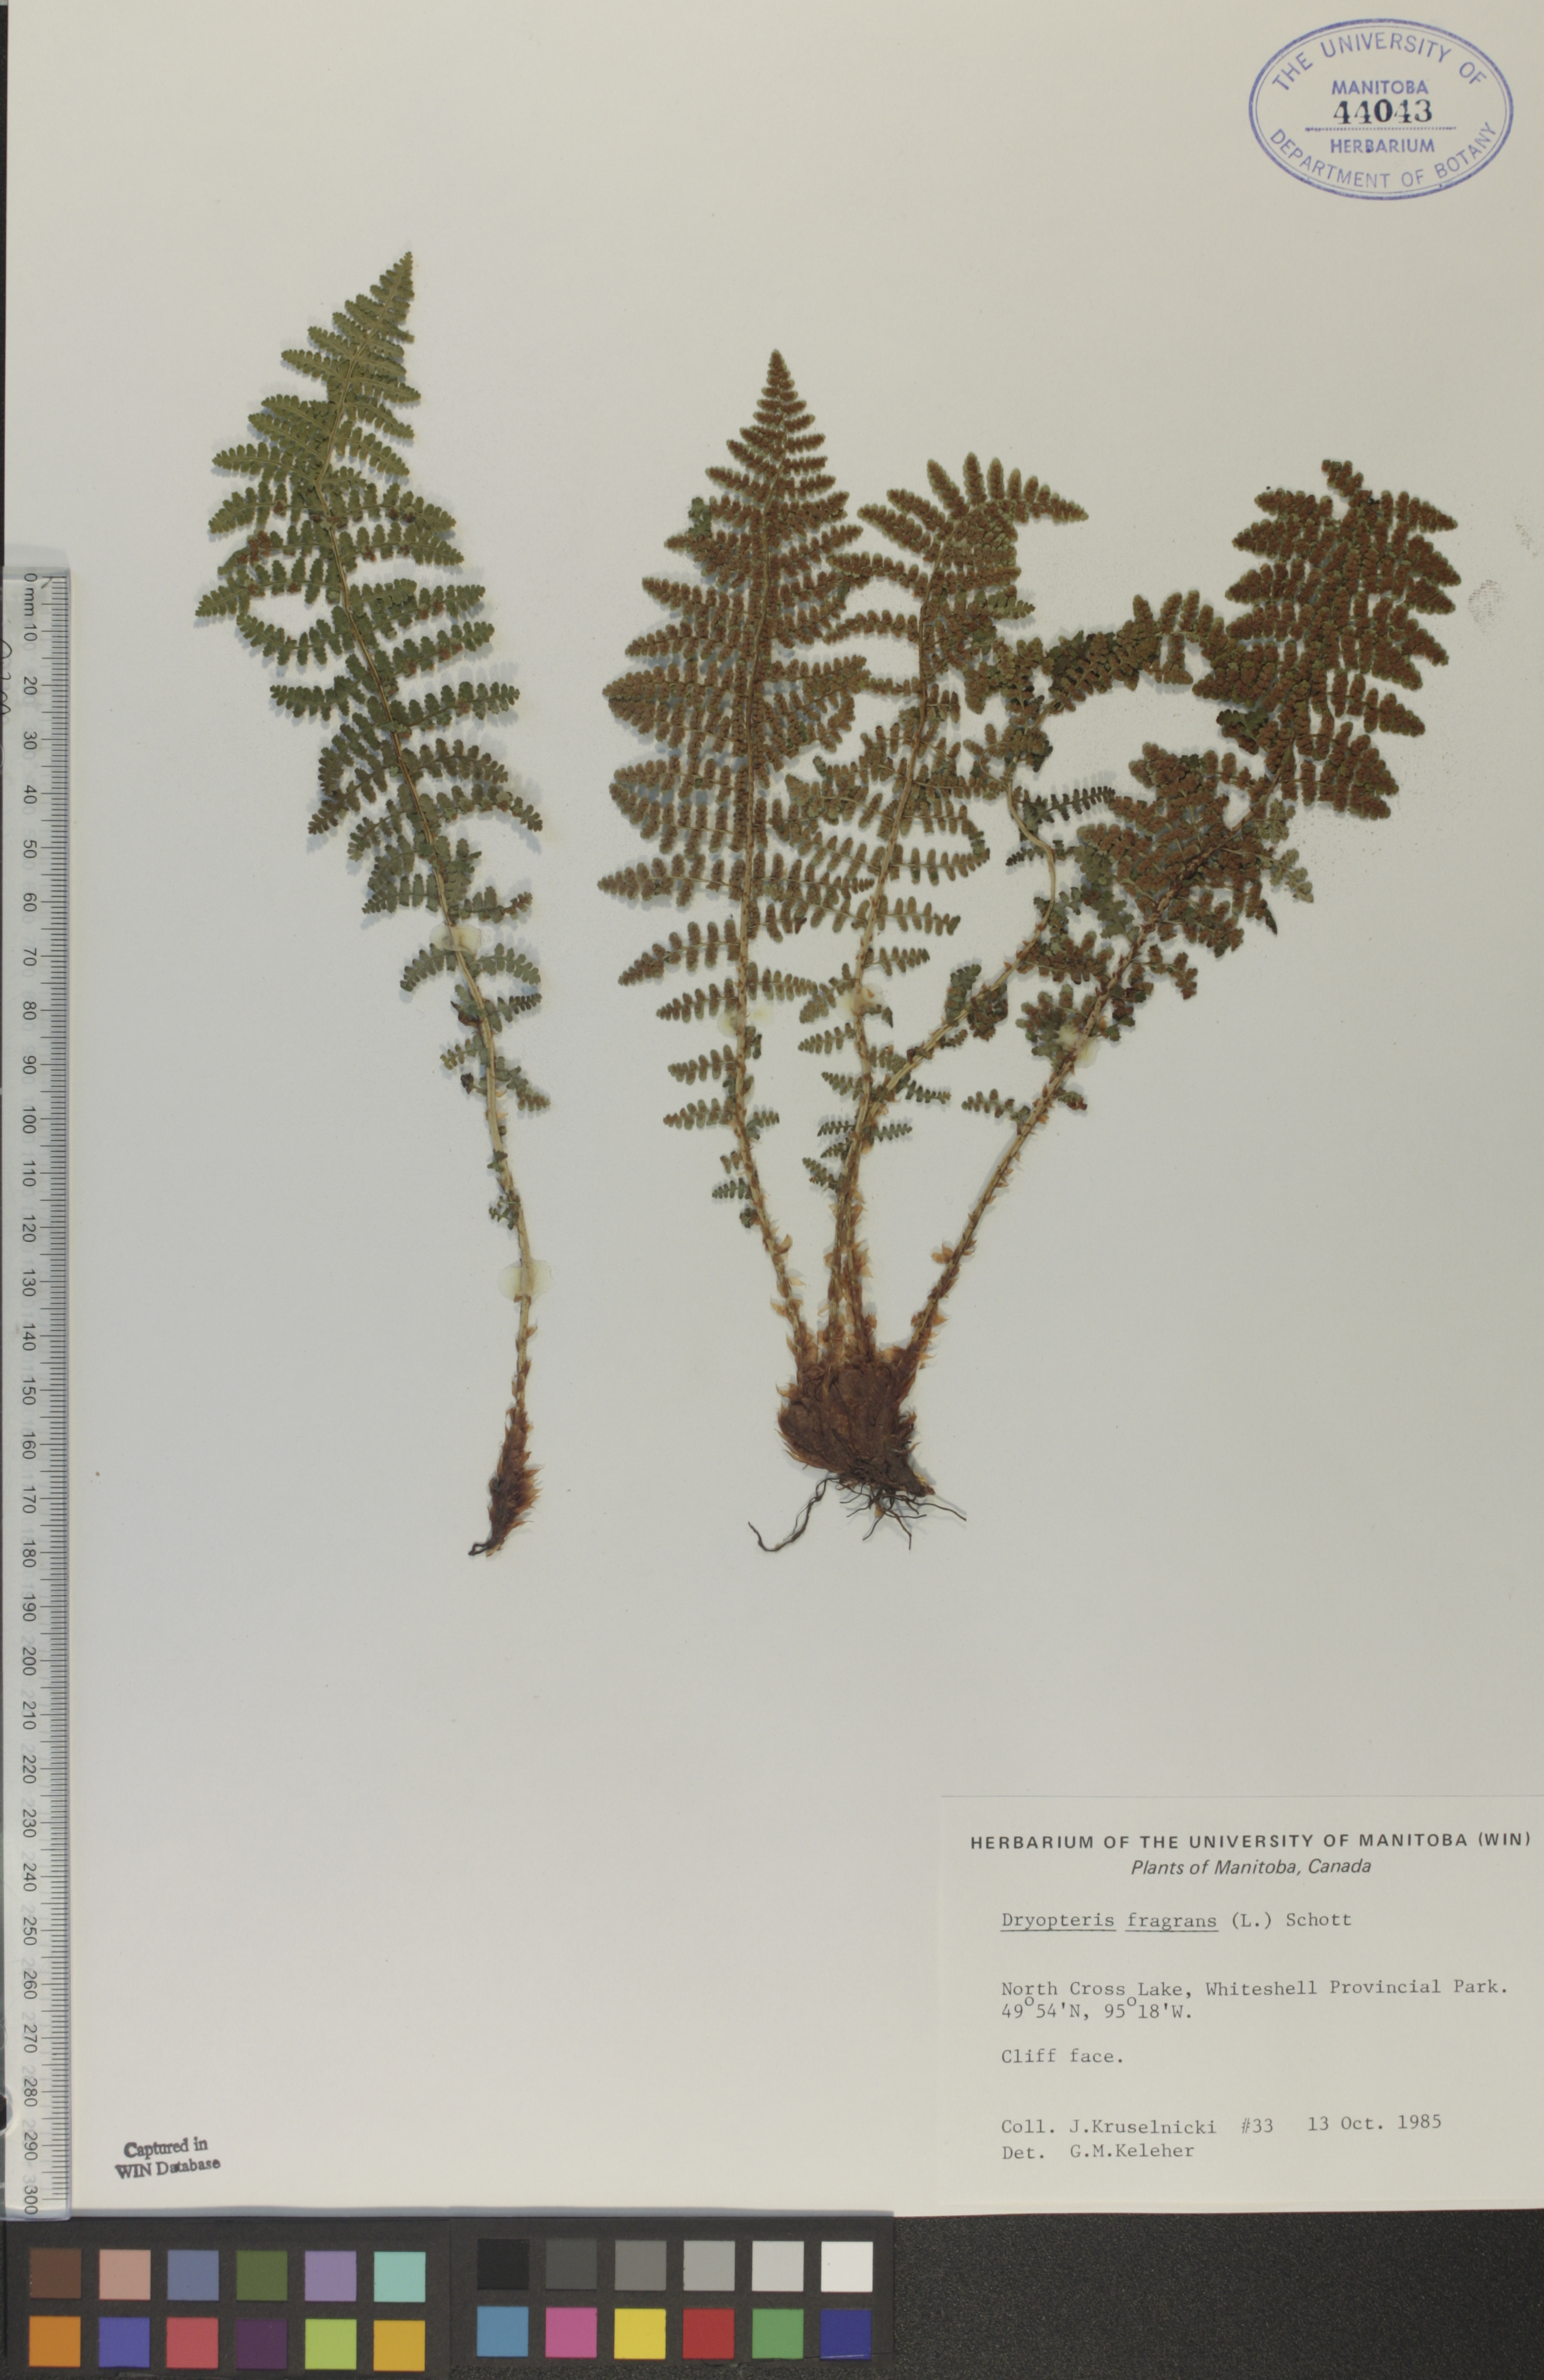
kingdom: Plantae
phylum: Tracheophyta
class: Polypodiopsida
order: Polypodiales
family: Dryopteridaceae
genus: Dryopteris
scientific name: Dryopteris fragrans
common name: Fragrant wood fern
